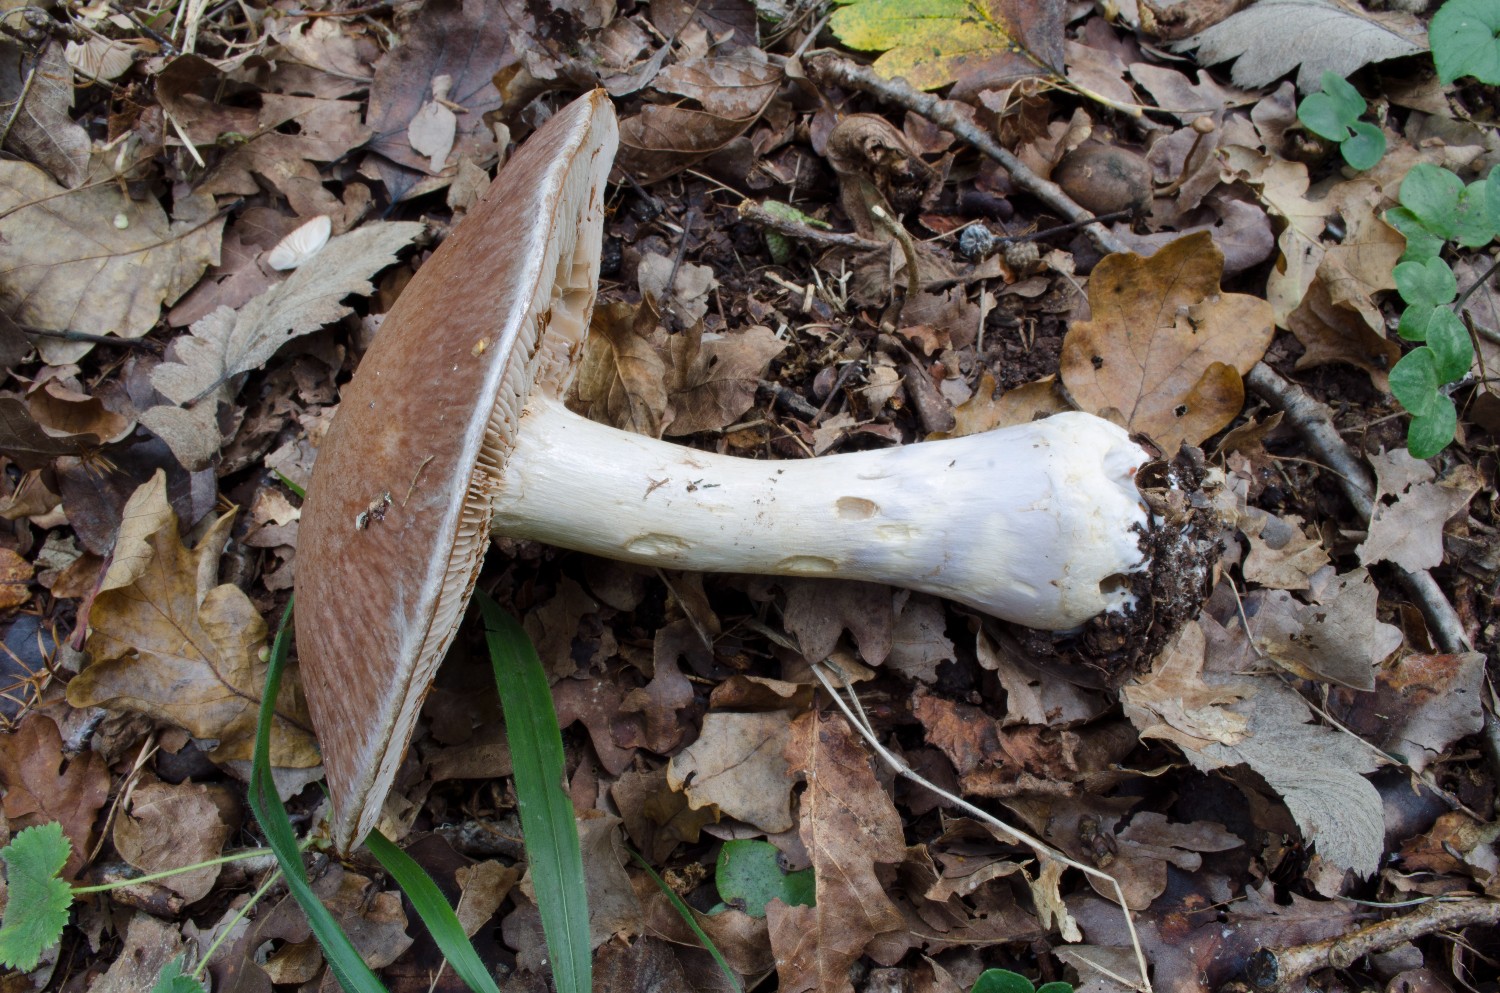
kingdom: Fungi
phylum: Basidiomycota
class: Agaricomycetes
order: Agaricales
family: Cortinariaceae
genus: Cortinarius
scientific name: Cortinarius praestans
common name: Goliath webcap
